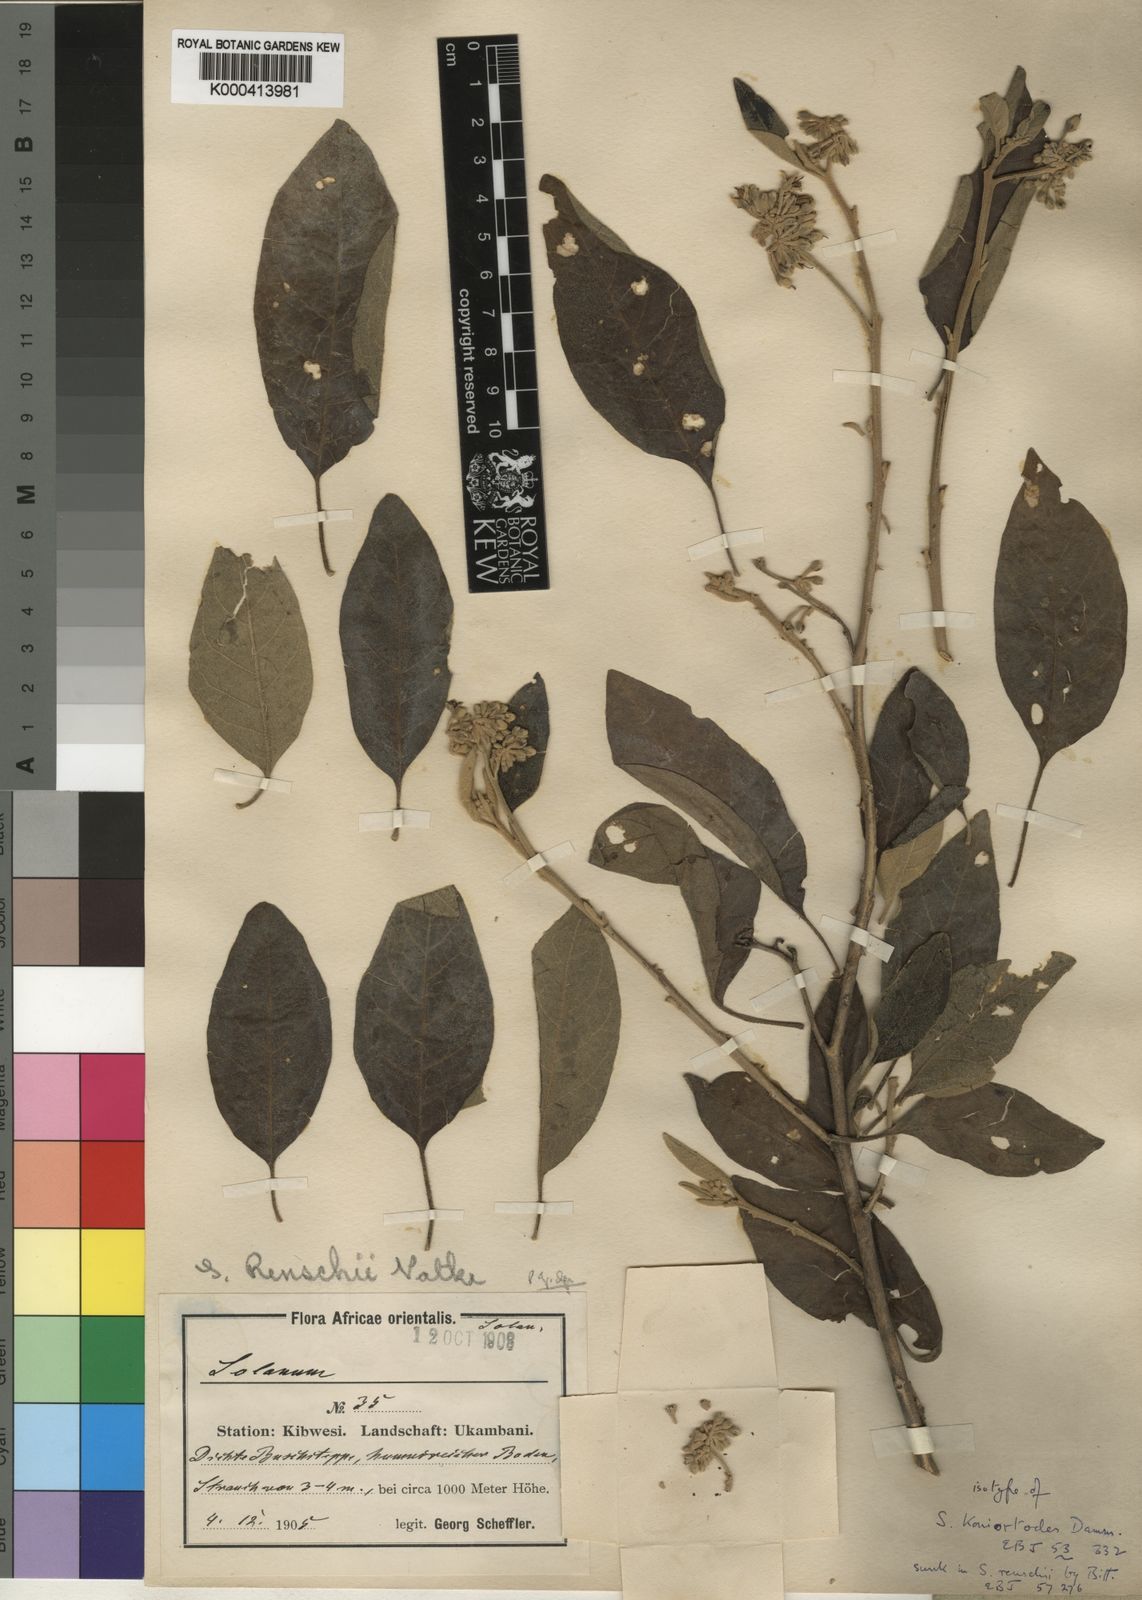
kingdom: Plantae
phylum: Tracheophyta
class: Magnoliopsida
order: Solanales
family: Solanaceae
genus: Solanum
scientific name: Solanum tettense
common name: Mozambique bitter apple
